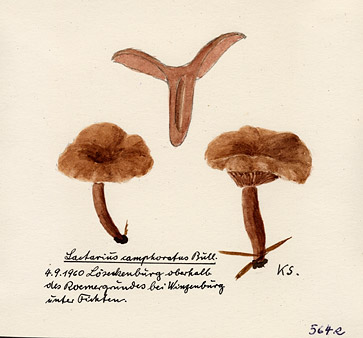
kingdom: Fungi
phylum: Basidiomycota
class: Agaricomycetes
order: Russulales
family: Russulaceae
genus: Lactarius
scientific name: Lactarius camphoratus
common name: Curry milkcap
